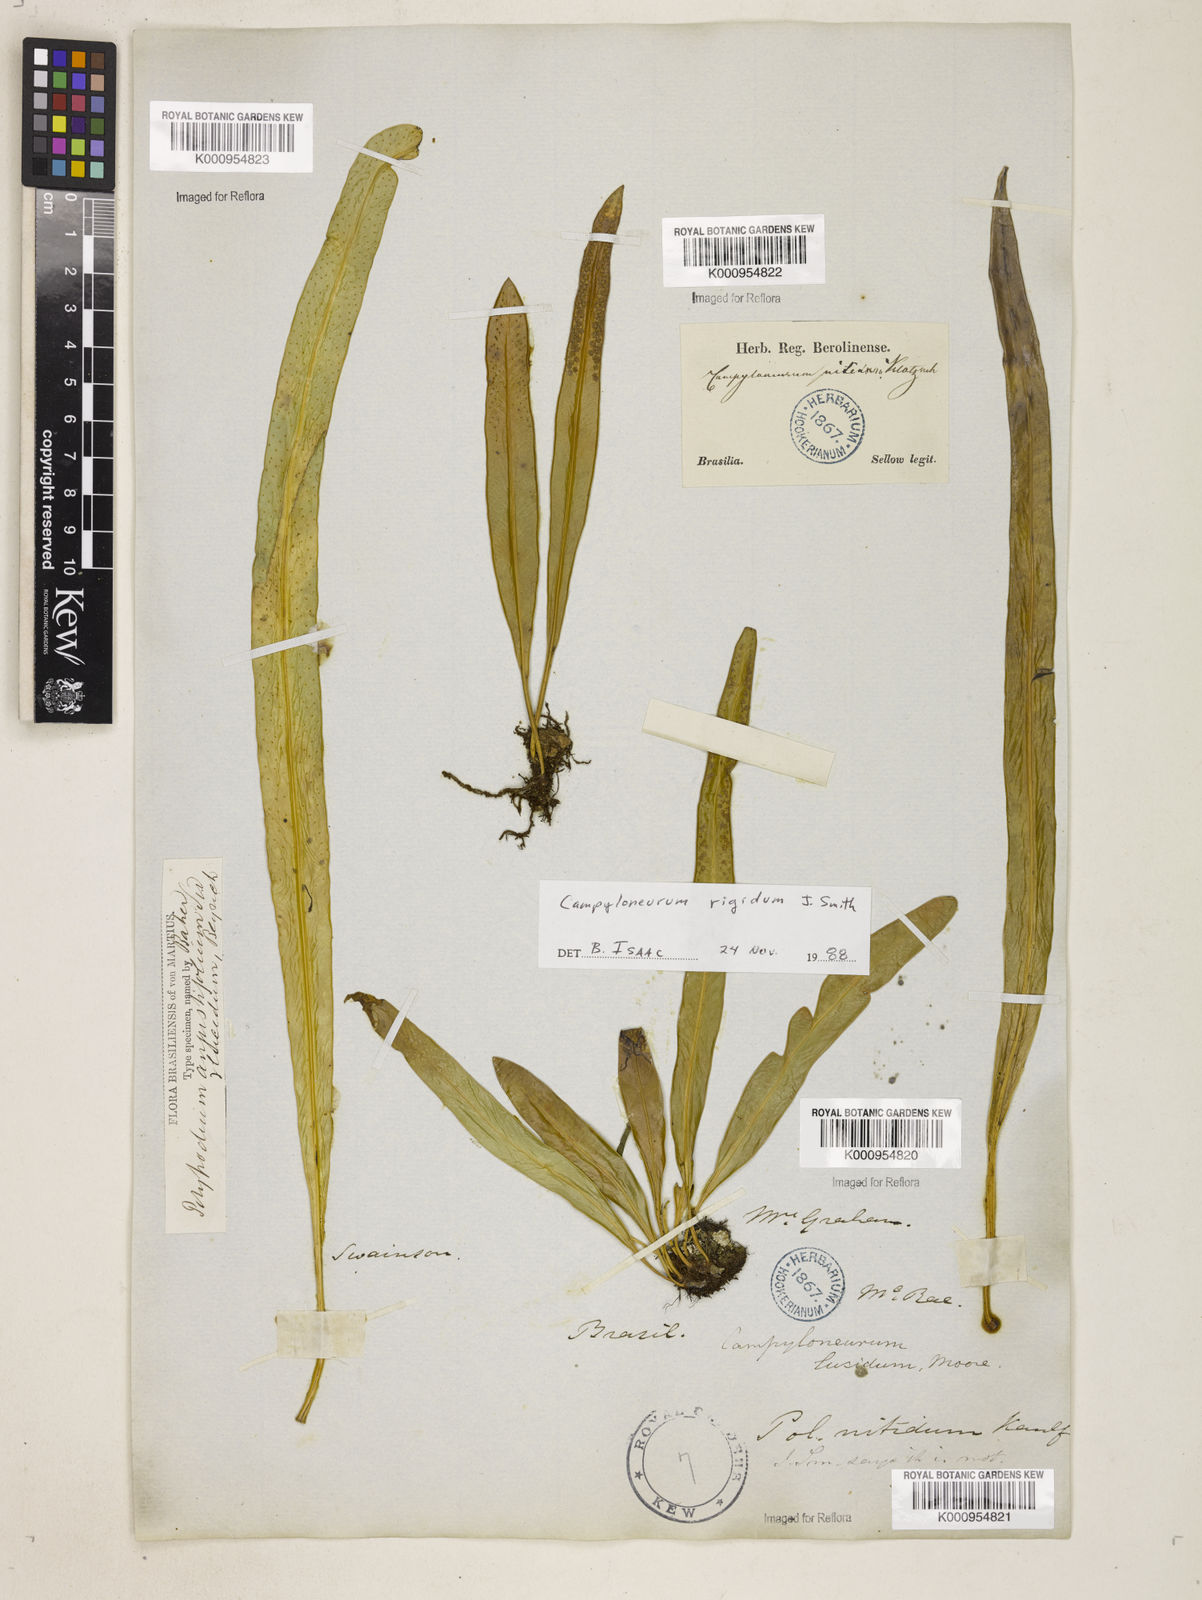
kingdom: Plantae
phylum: Tracheophyta
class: Polypodiopsida
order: Polypodiales
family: Polypodiaceae
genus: Campyloneurum
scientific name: Campyloneurum rigidum
